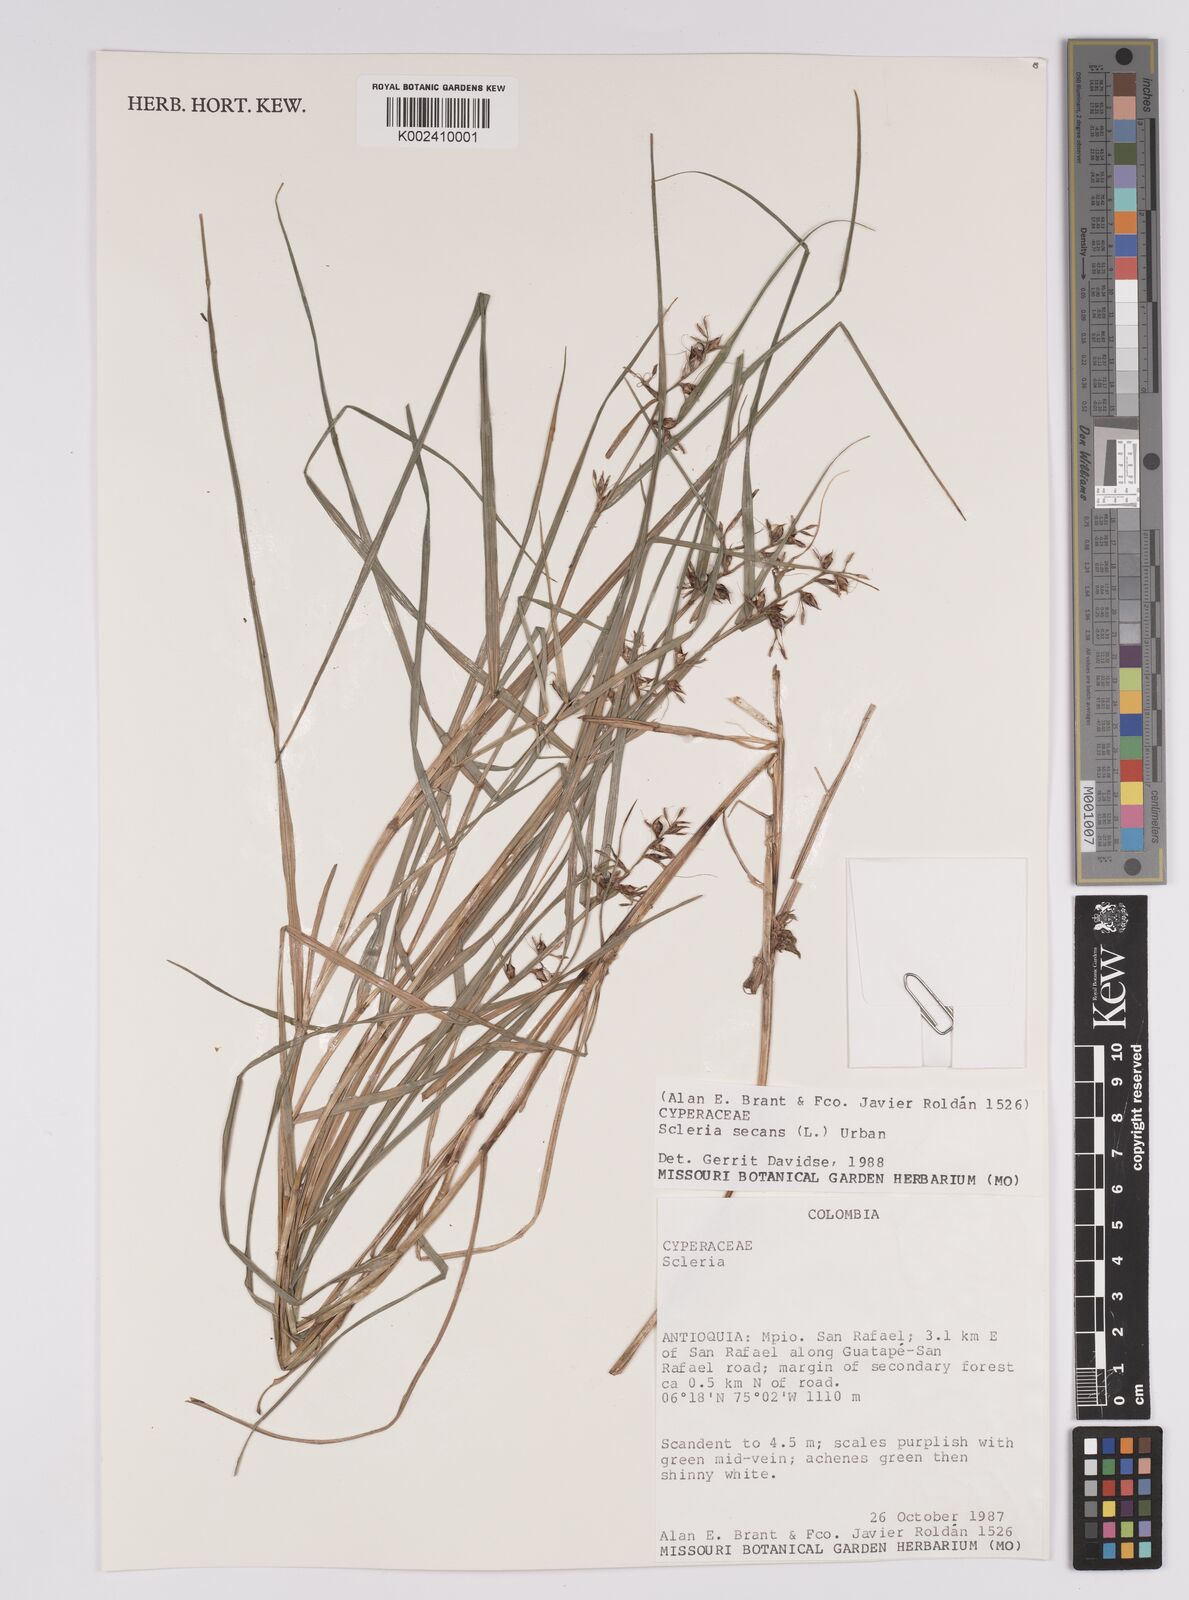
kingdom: Plantae
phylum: Tracheophyta
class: Liliopsida
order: Poales
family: Cyperaceae
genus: Rhynchospora
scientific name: Rhynchospora tenerrima
